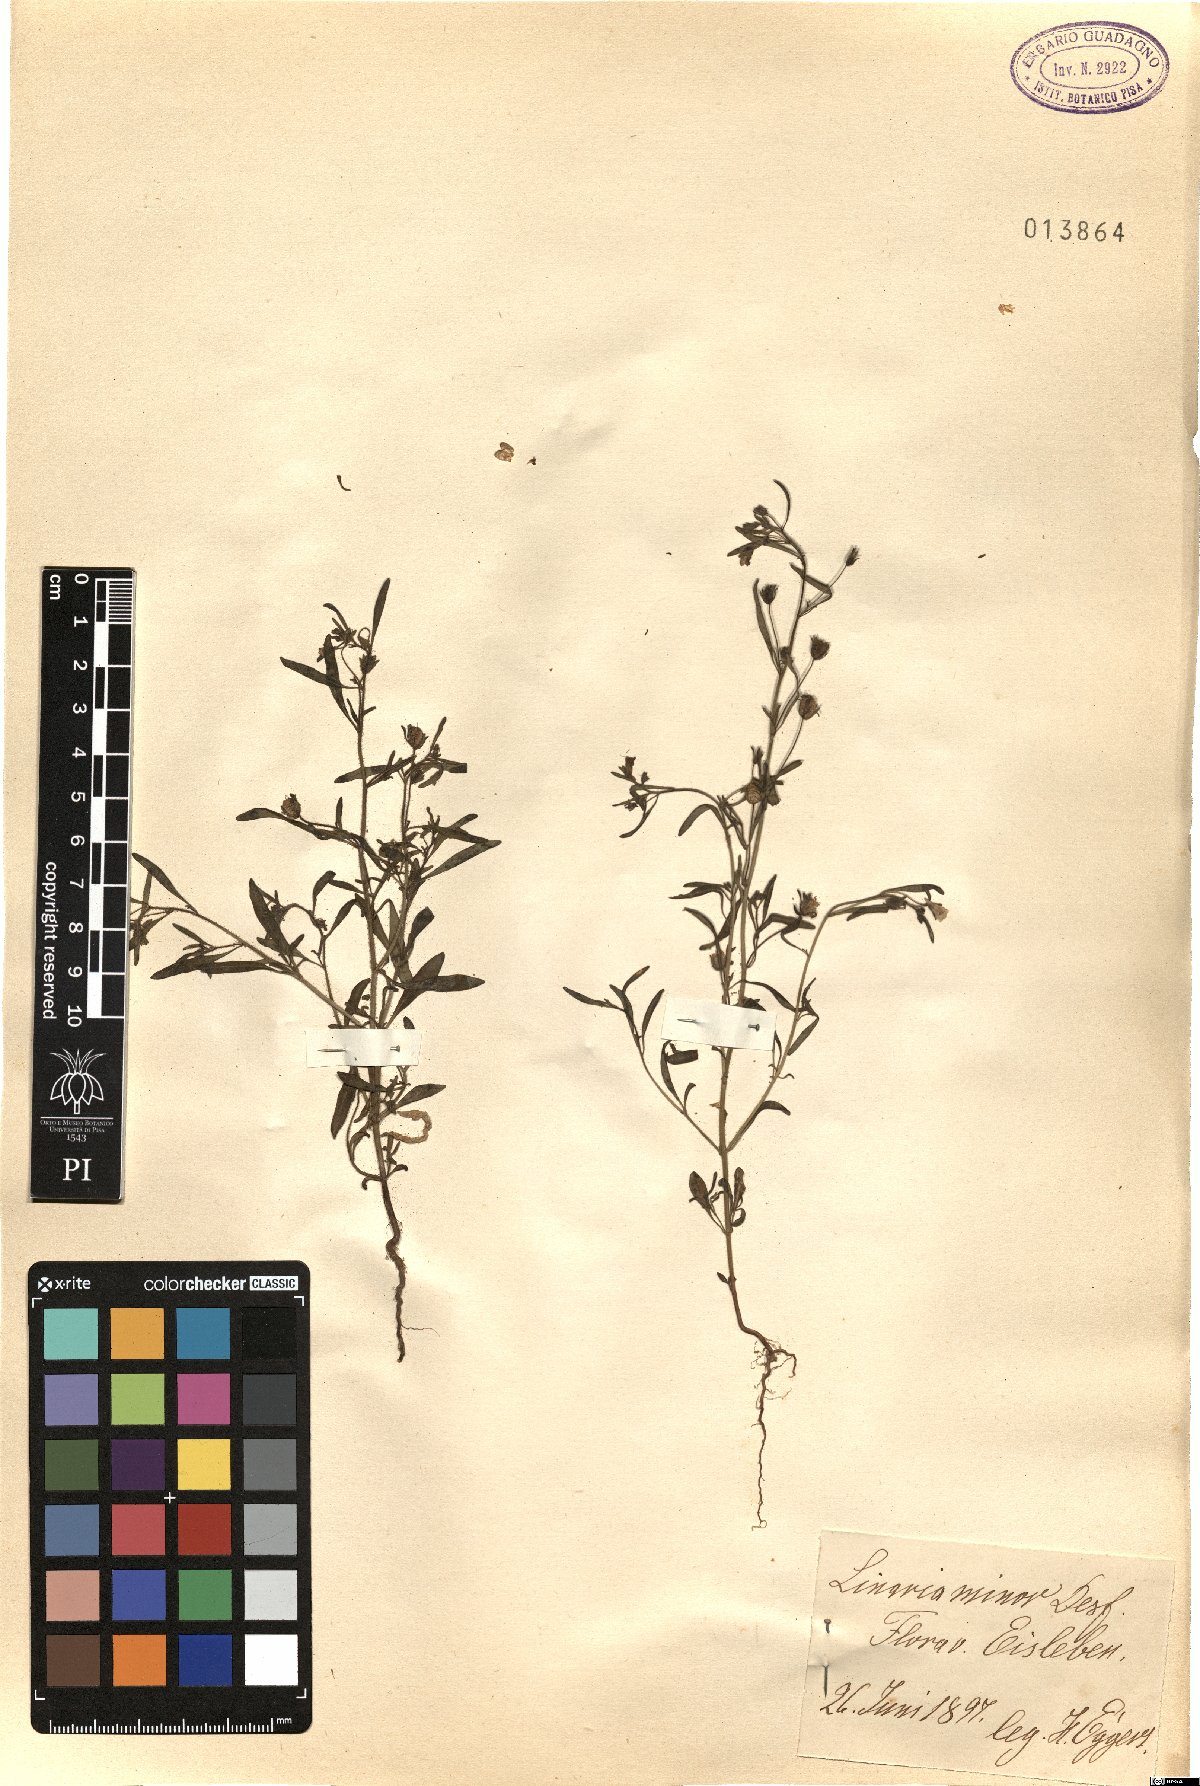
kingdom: Plantae
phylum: Tracheophyta
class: Magnoliopsida
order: Lamiales
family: Plantaginaceae
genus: Chaenorhinum
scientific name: Chaenorhinum minus
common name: Dwarf snapdragon
